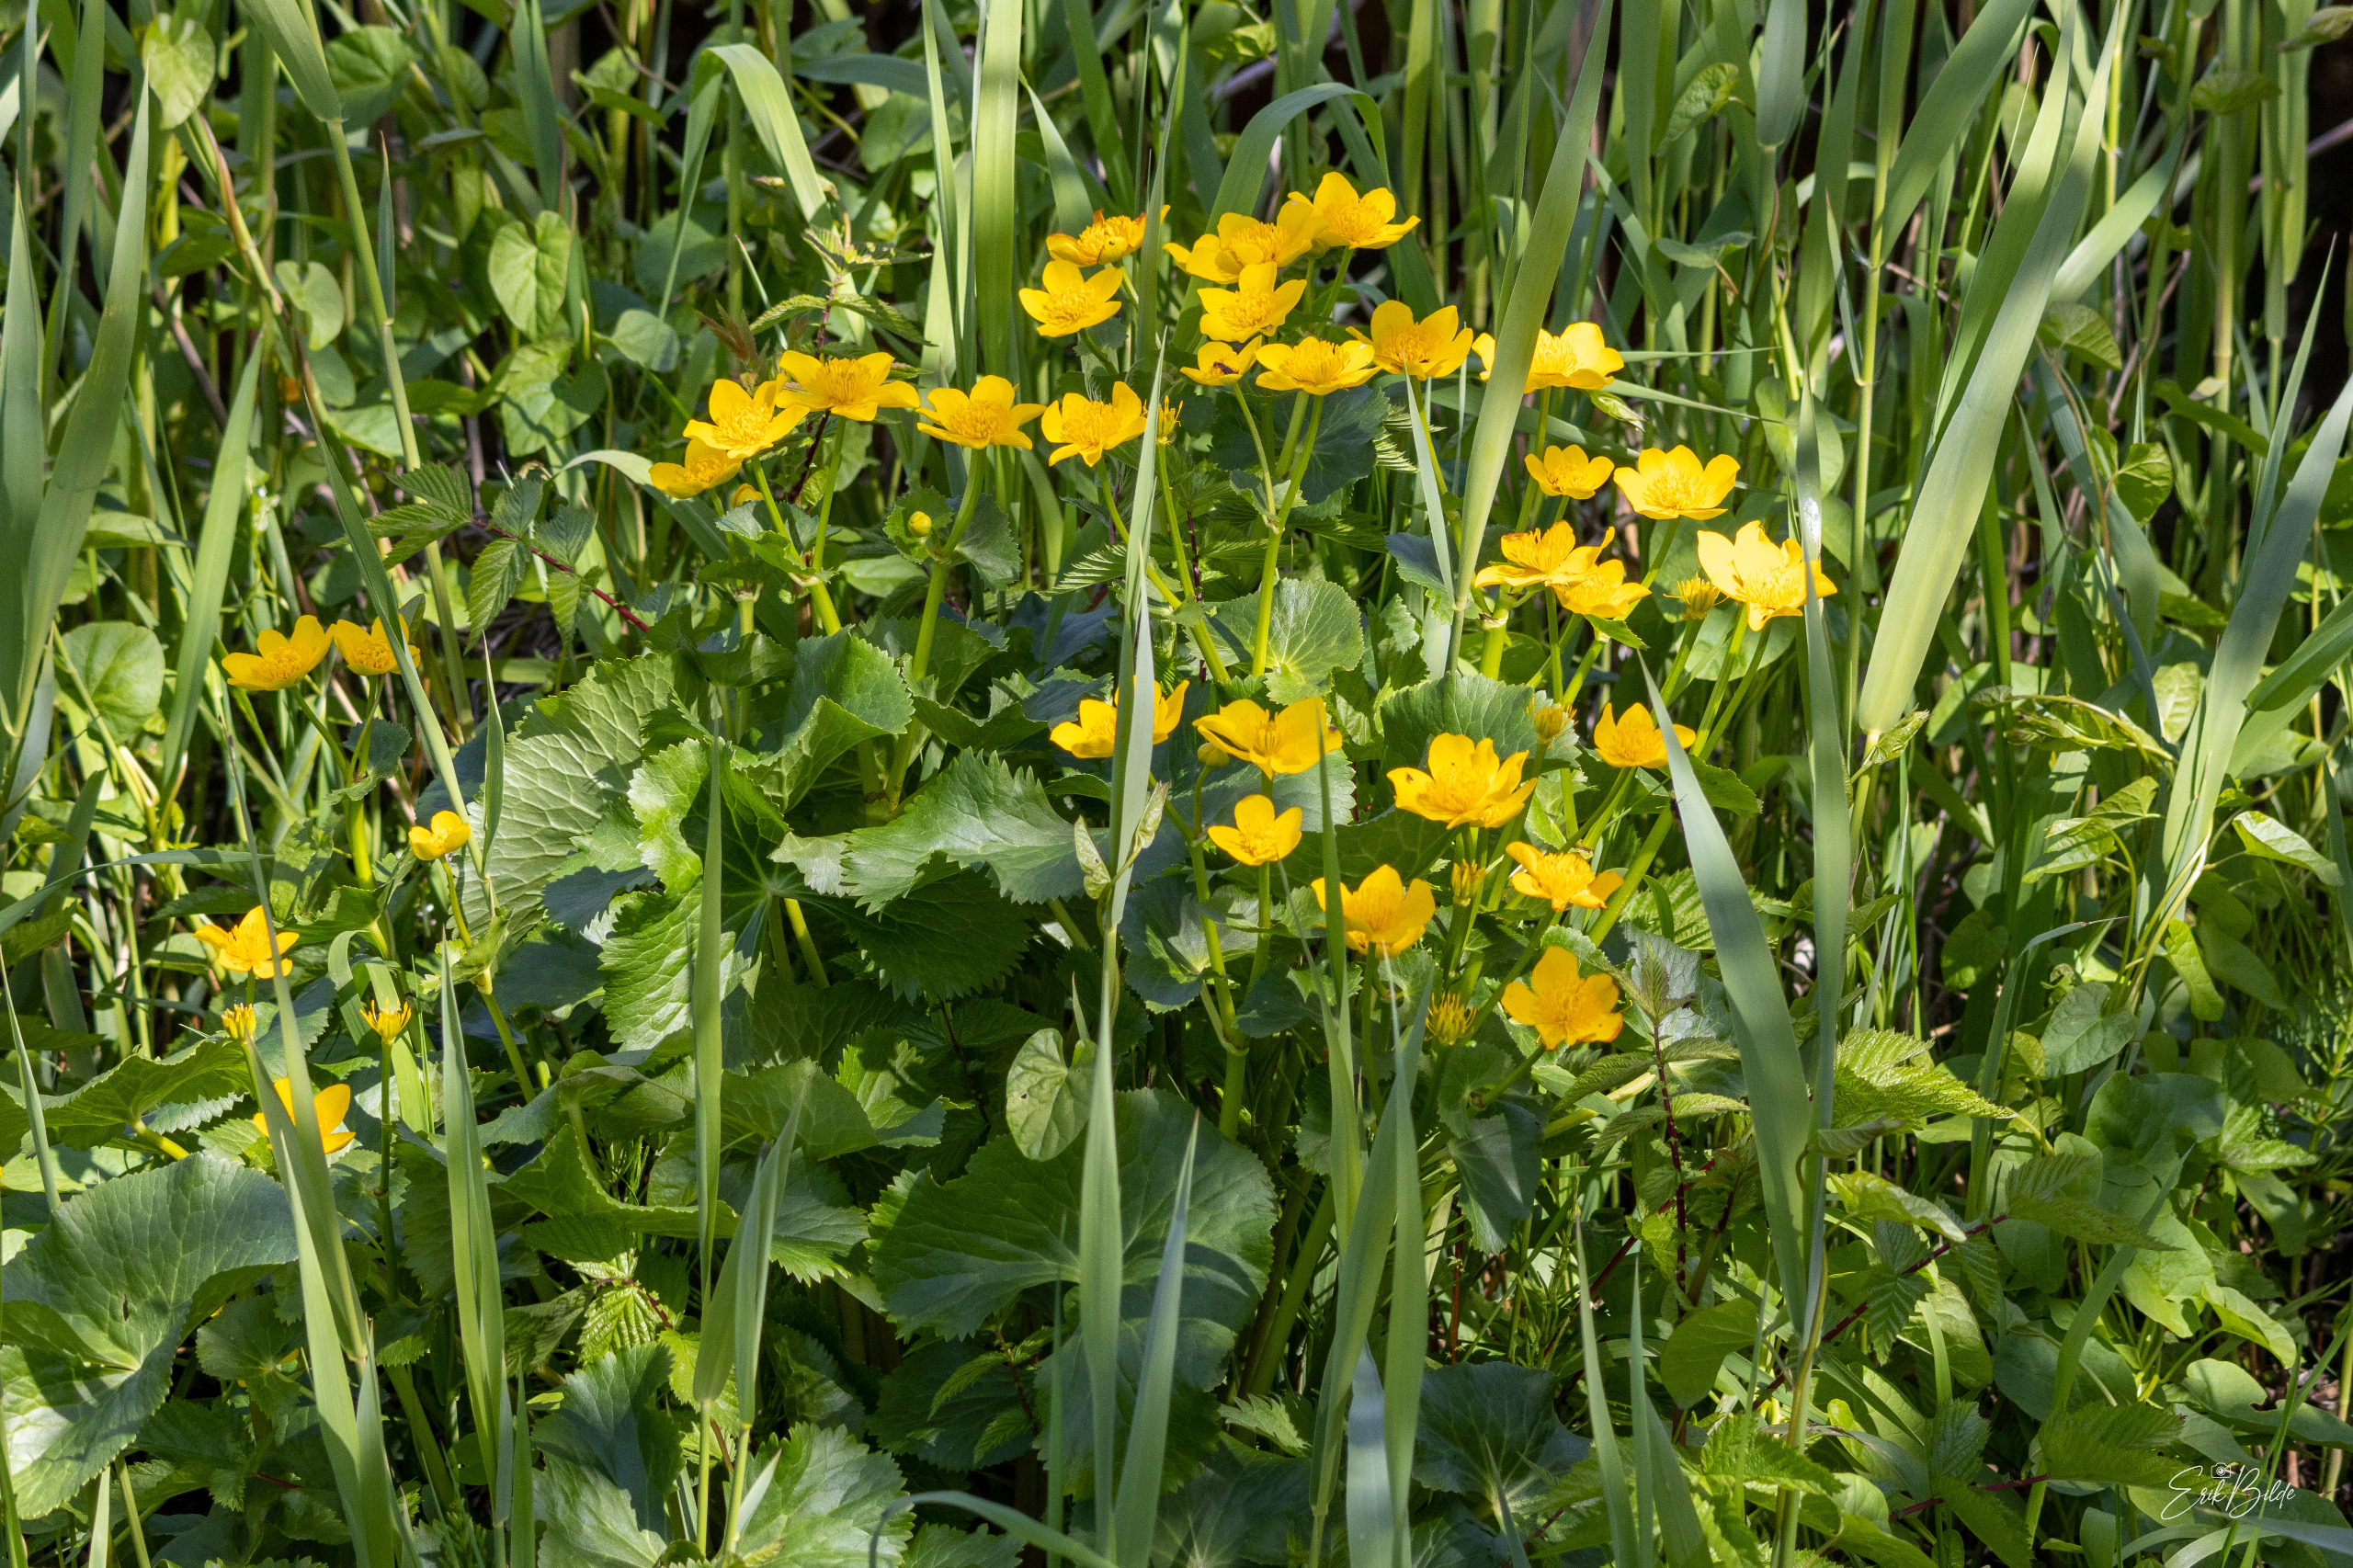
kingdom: Plantae
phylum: Tracheophyta
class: Magnoliopsida
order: Ranunculales
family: Ranunculaceae
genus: Caltha
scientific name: Caltha palustris
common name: Eng-kabbeleje
